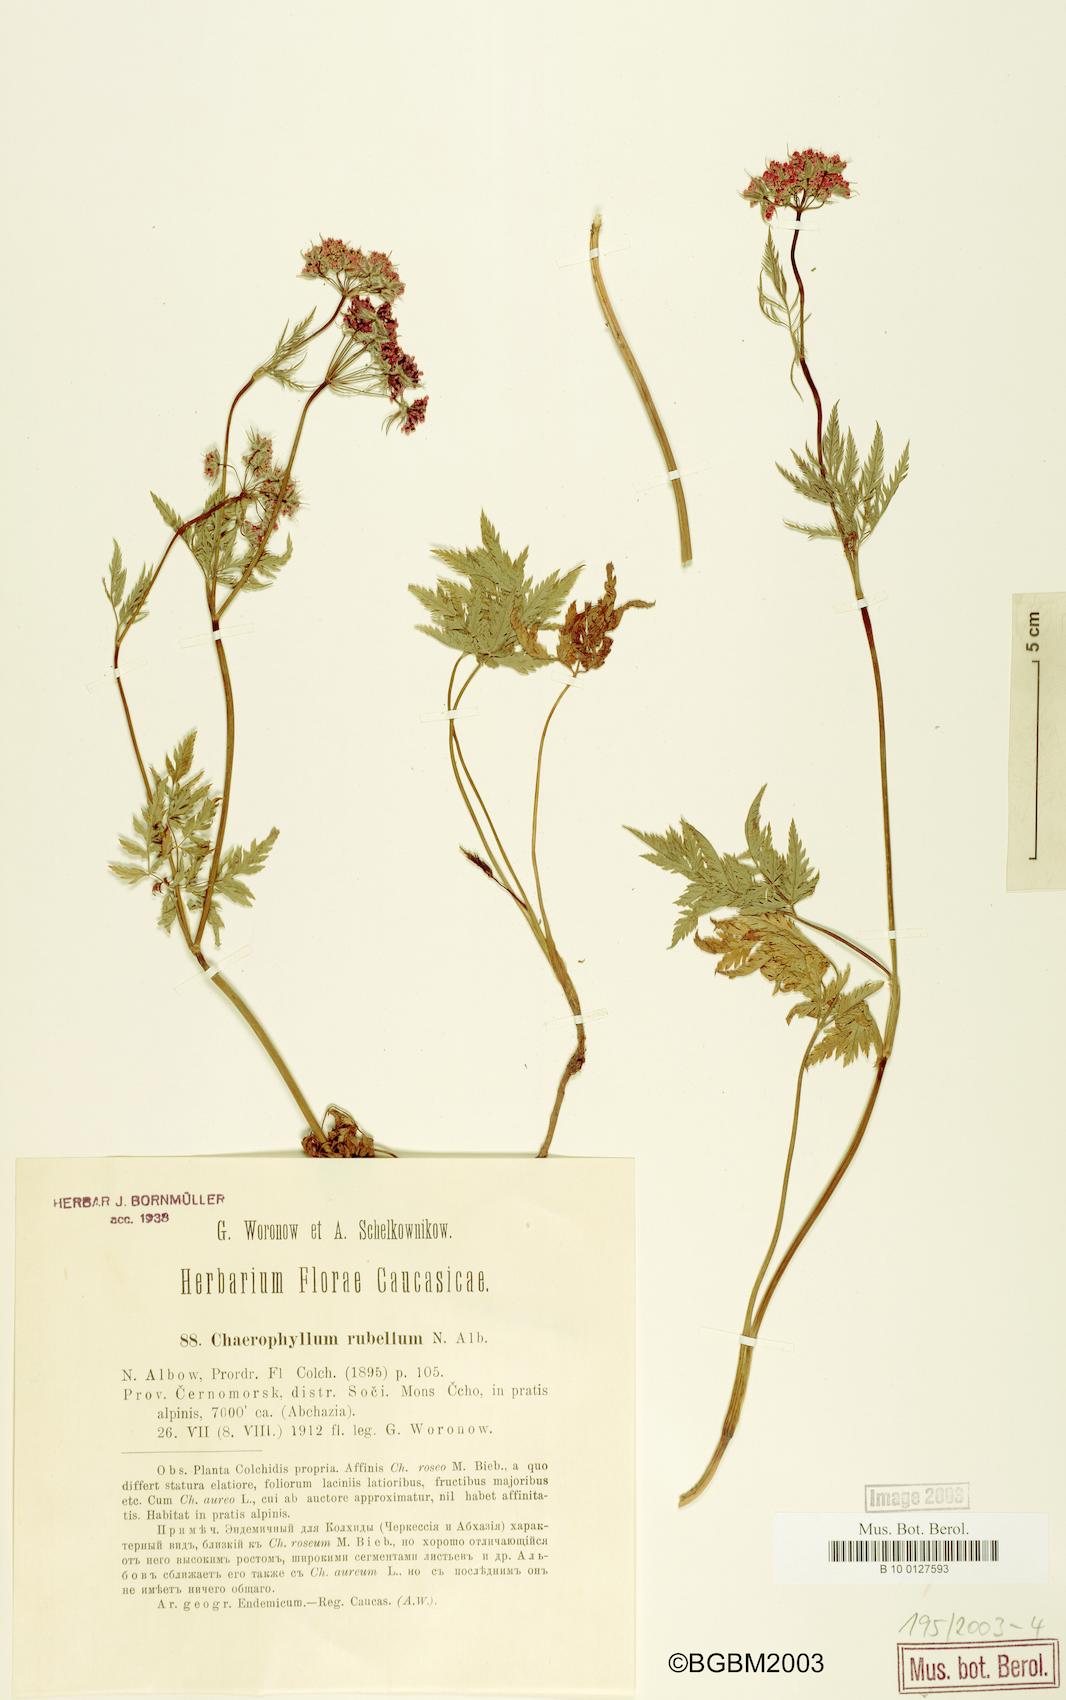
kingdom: Plantae
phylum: Tracheophyta
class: Magnoliopsida
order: Apiales
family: Apiaceae
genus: Chaerophyllum
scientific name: Chaerophyllum rubellum
